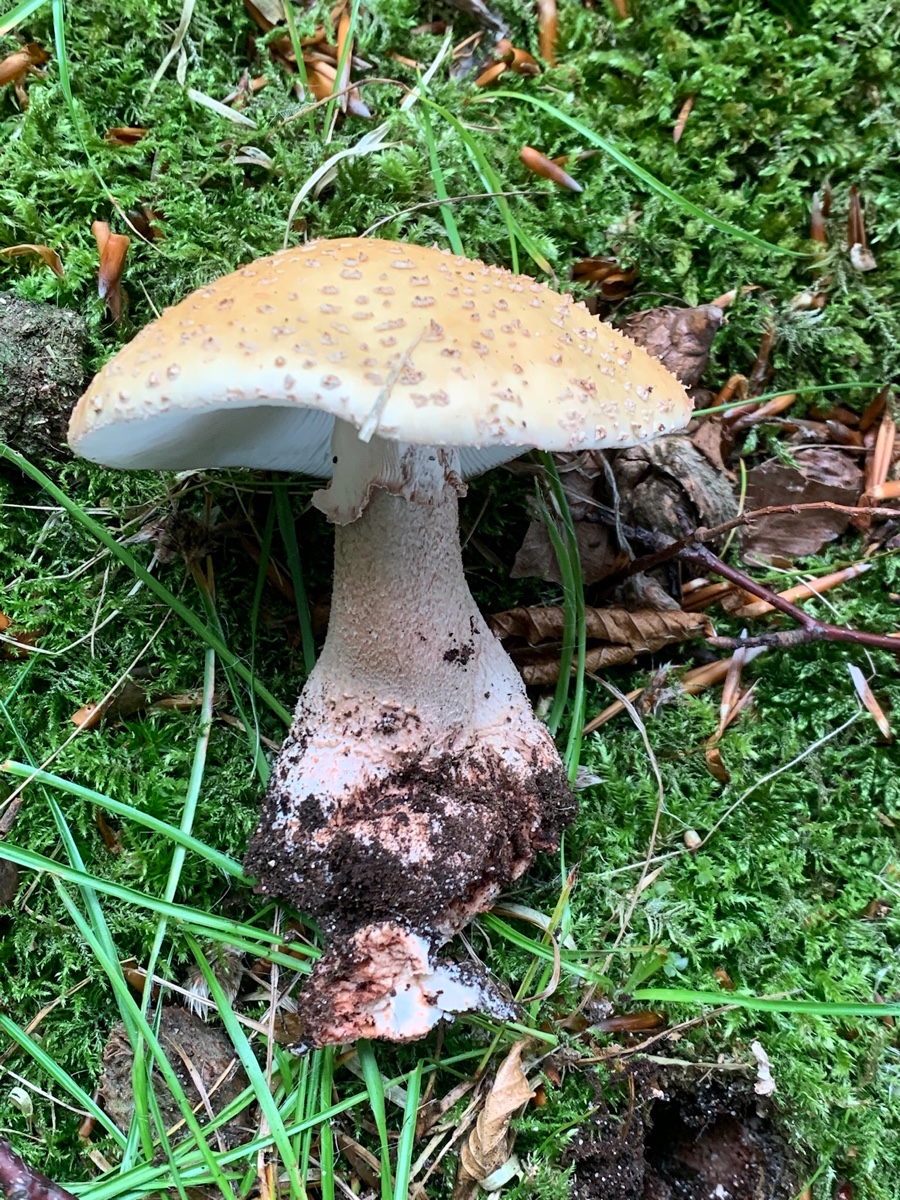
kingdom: Fungi
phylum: Basidiomycota
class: Agaricomycetes
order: Agaricales
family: Amanitaceae
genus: Amanita
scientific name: Amanita rubescens
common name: rødmende fluesvamp
